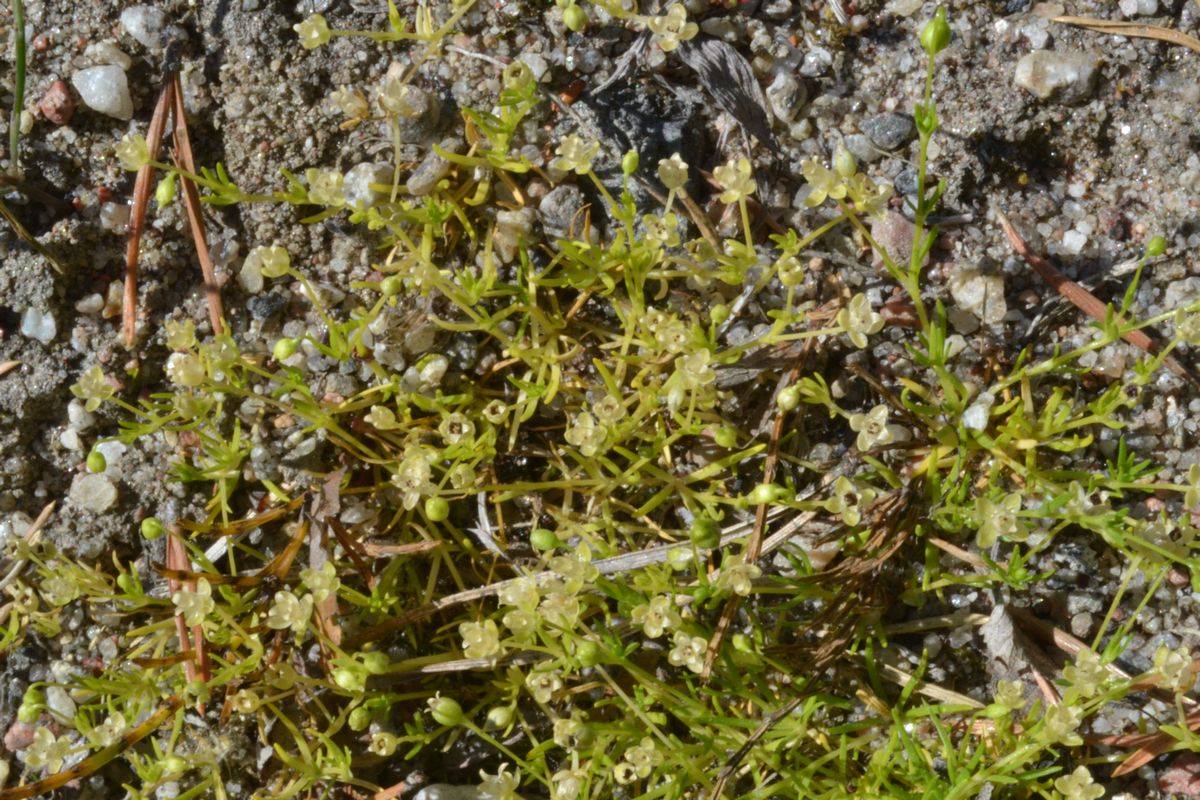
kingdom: Plantae
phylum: Tracheophyta
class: Magnoliopsida
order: Caryophyllales
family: Caryophyllaceae
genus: Sagina
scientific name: Sagina procumbens
